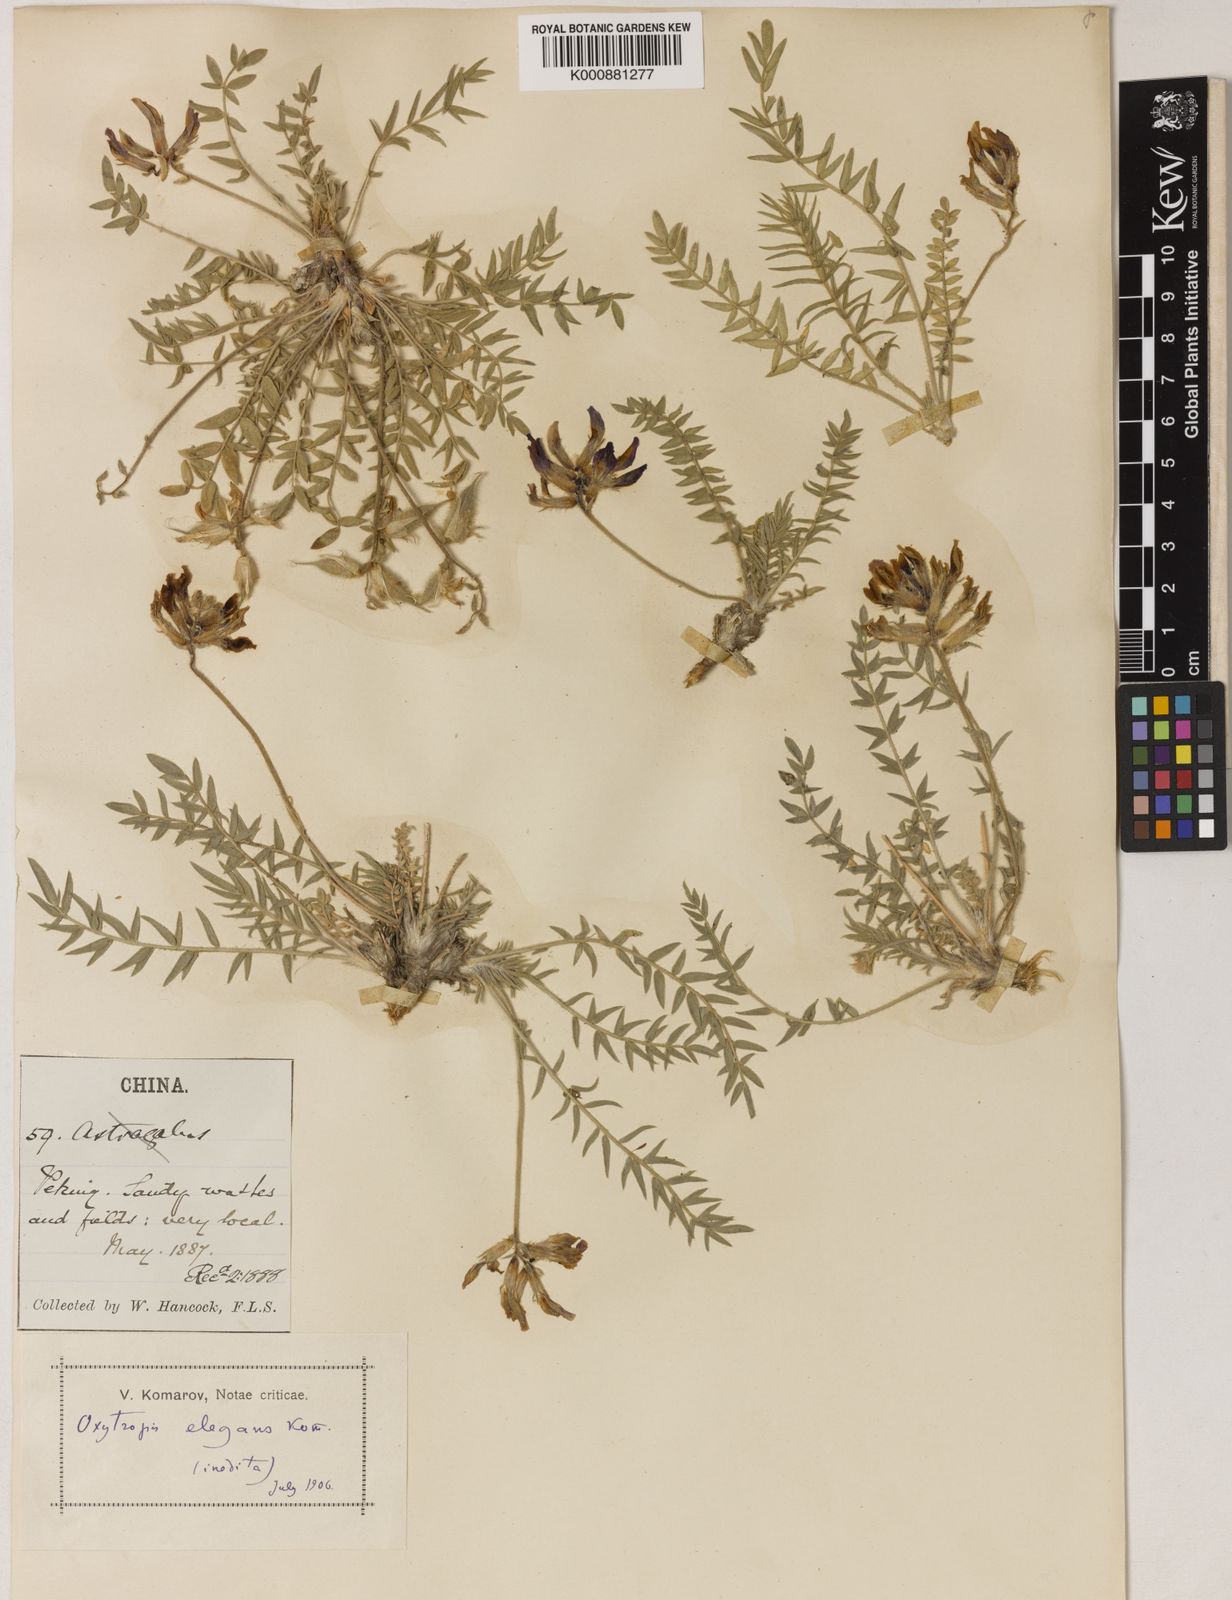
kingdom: Plantae
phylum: Tracheophyta
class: Magnoliopsida
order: Fabales
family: Fabaceae
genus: Oxytropis
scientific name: Oxytropis lasiopoda
